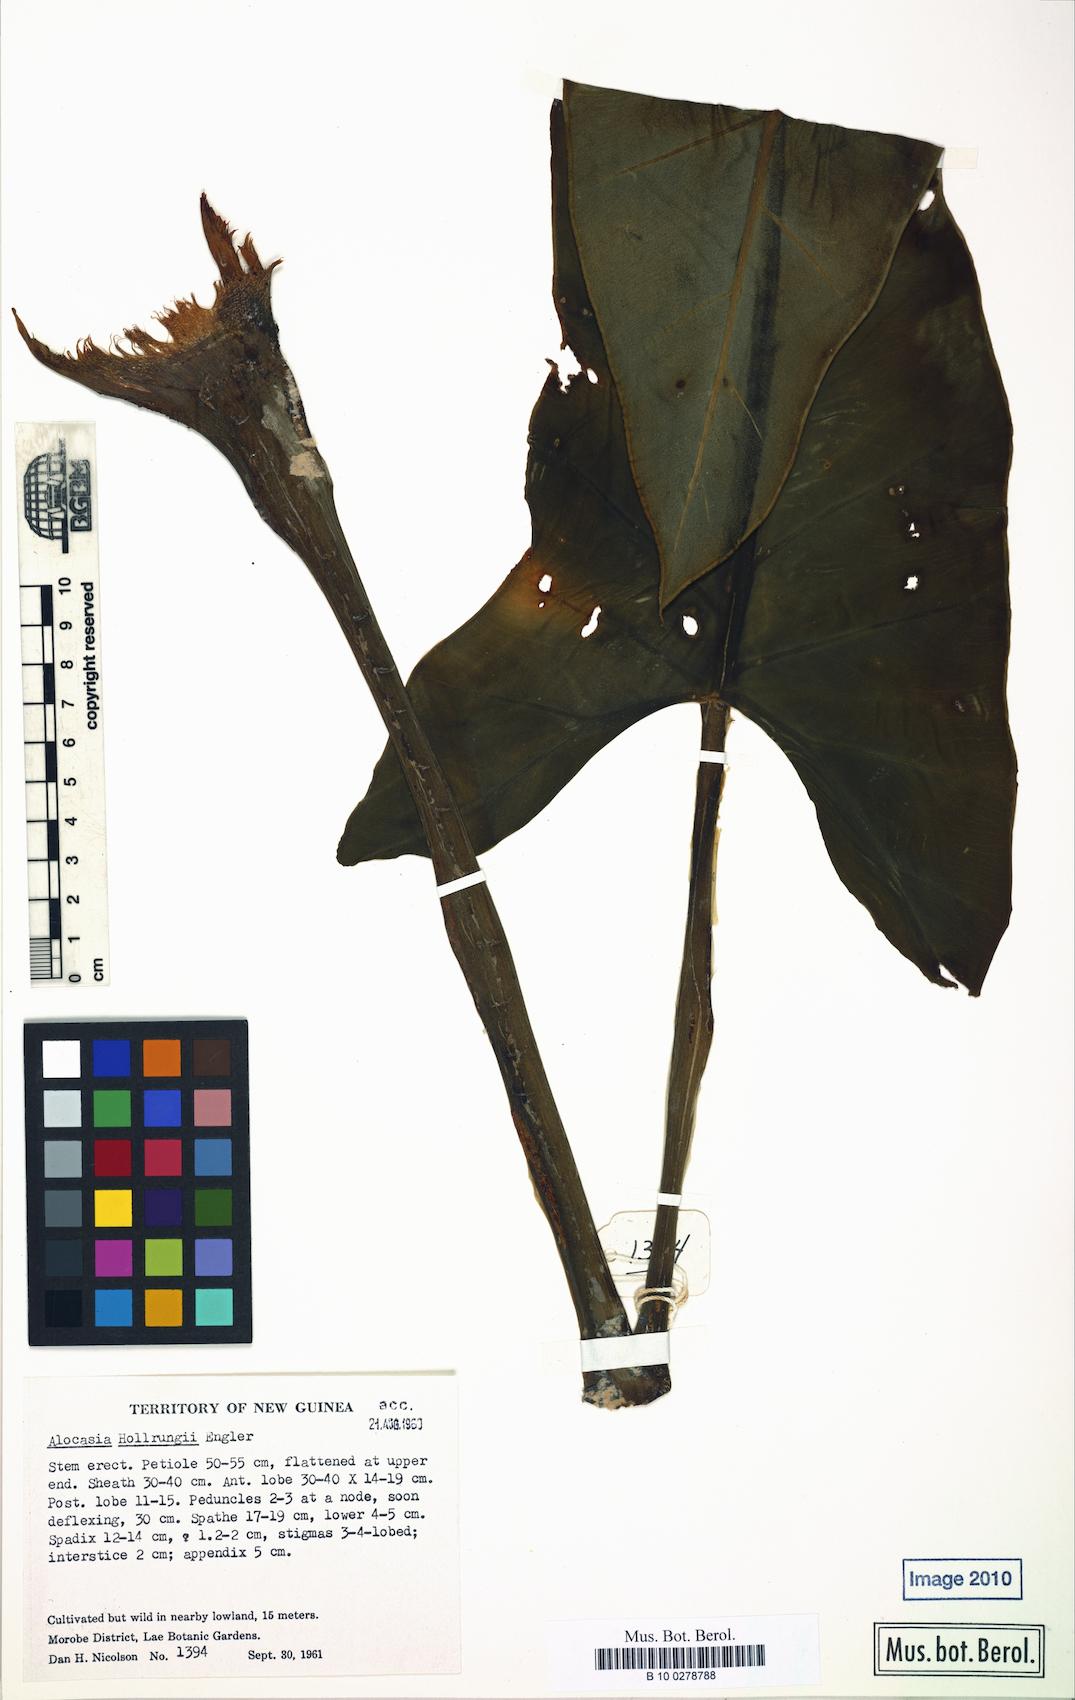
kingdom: Plantae
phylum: Tracheophyta
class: Liliopsida
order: Alismatales
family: Araceae
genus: Alocasia
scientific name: Alocasia hollrungii
